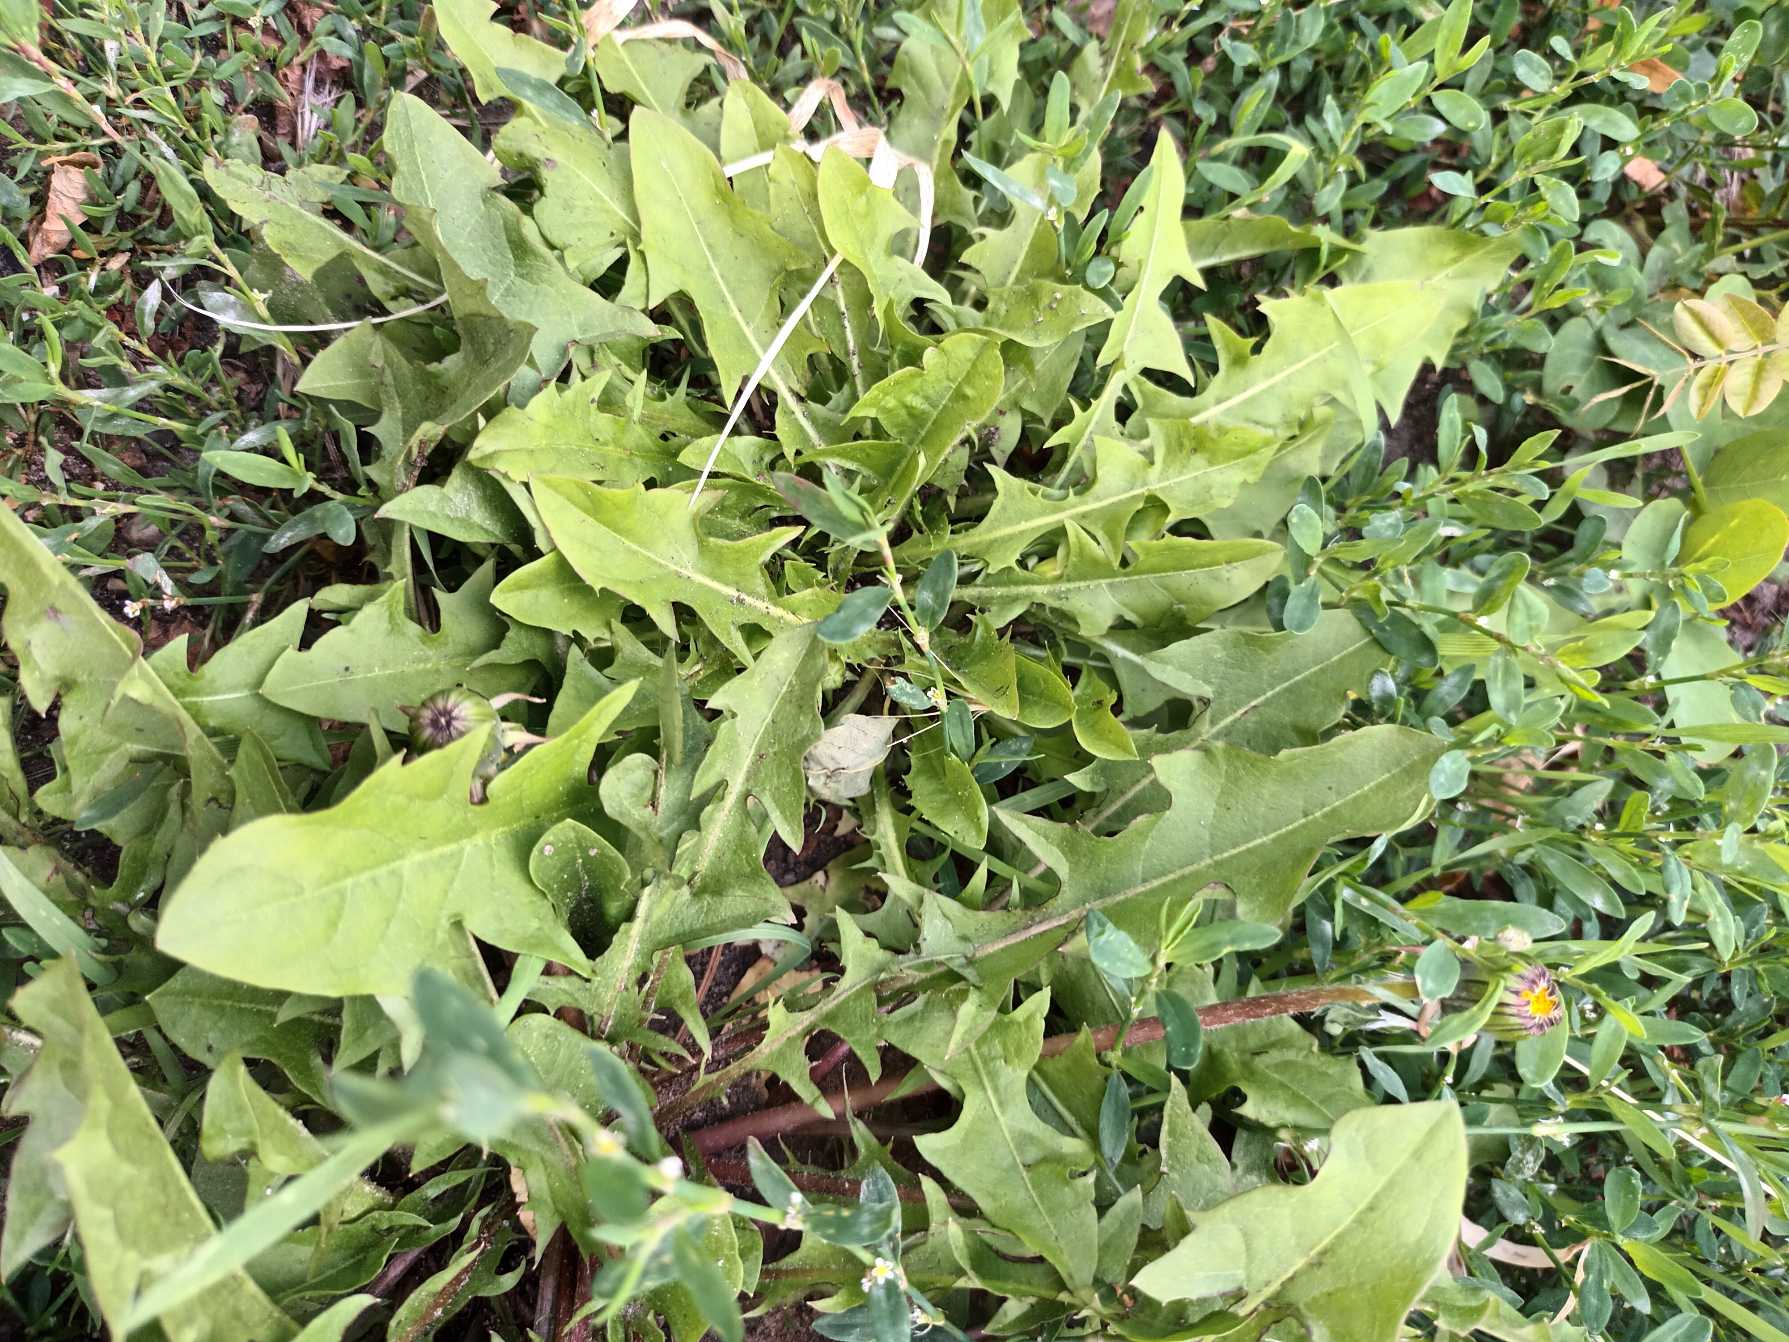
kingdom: Plantae
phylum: Tracheophyta
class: Magnoliopsida
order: Asterales
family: Asteraceae
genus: Taraxacum
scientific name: Taraxacum
